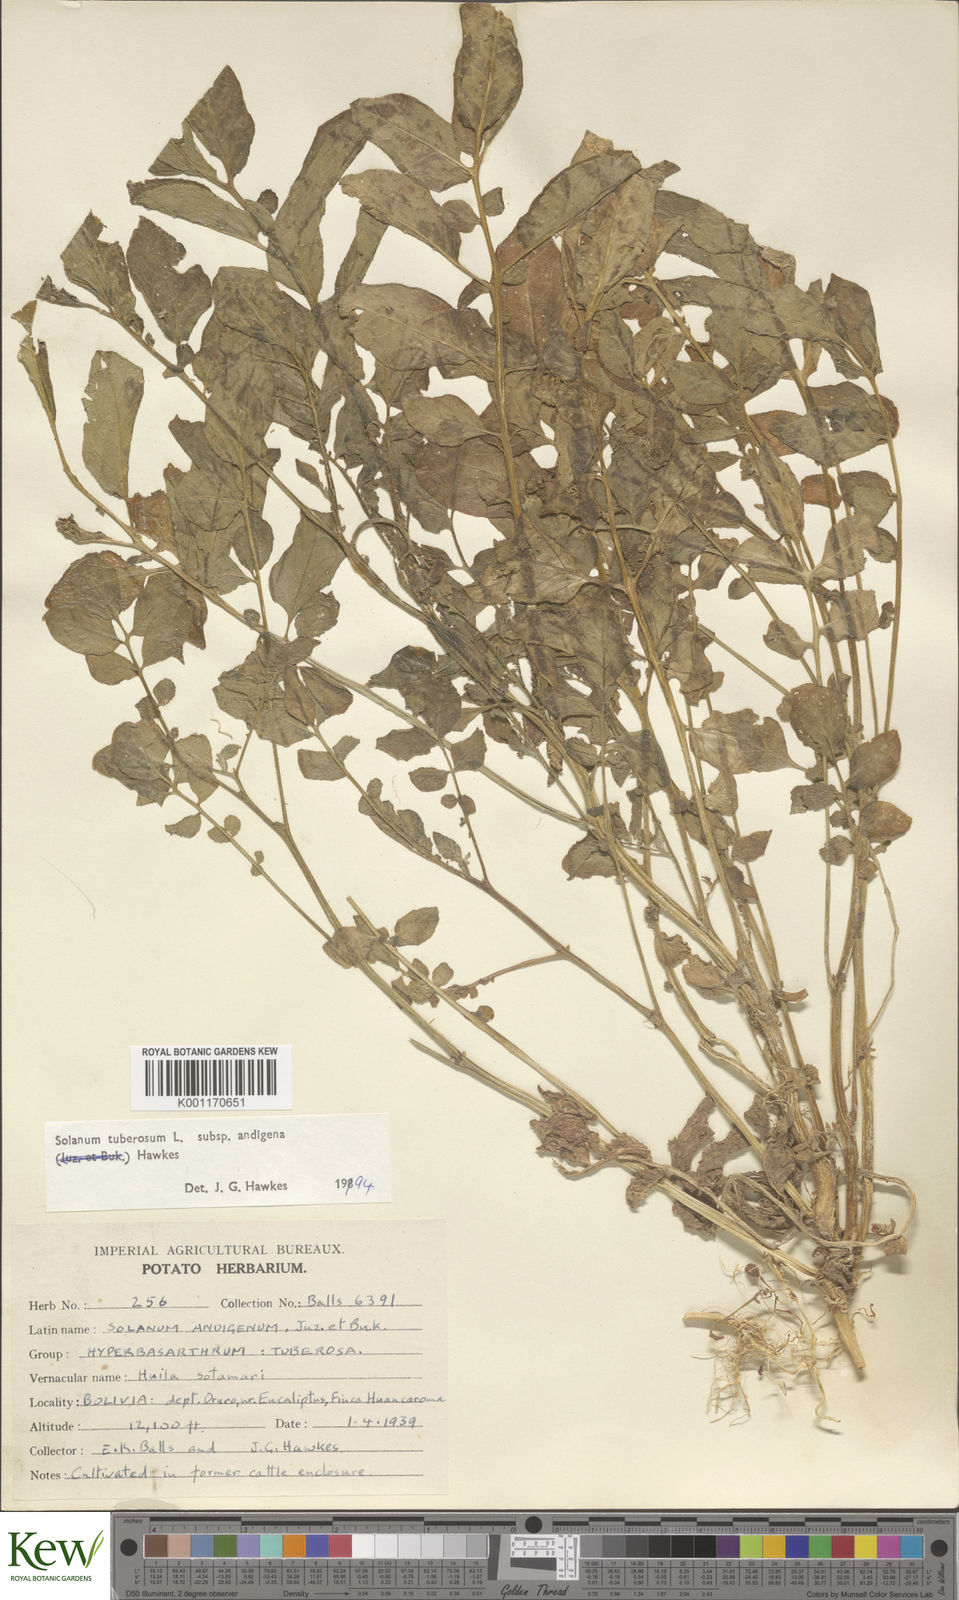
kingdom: Plantae
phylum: Tracheophyta
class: Magnoliopsida
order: Solanales
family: Solanaceae
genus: Solanum
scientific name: Solanum tuberosum
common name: Potato
